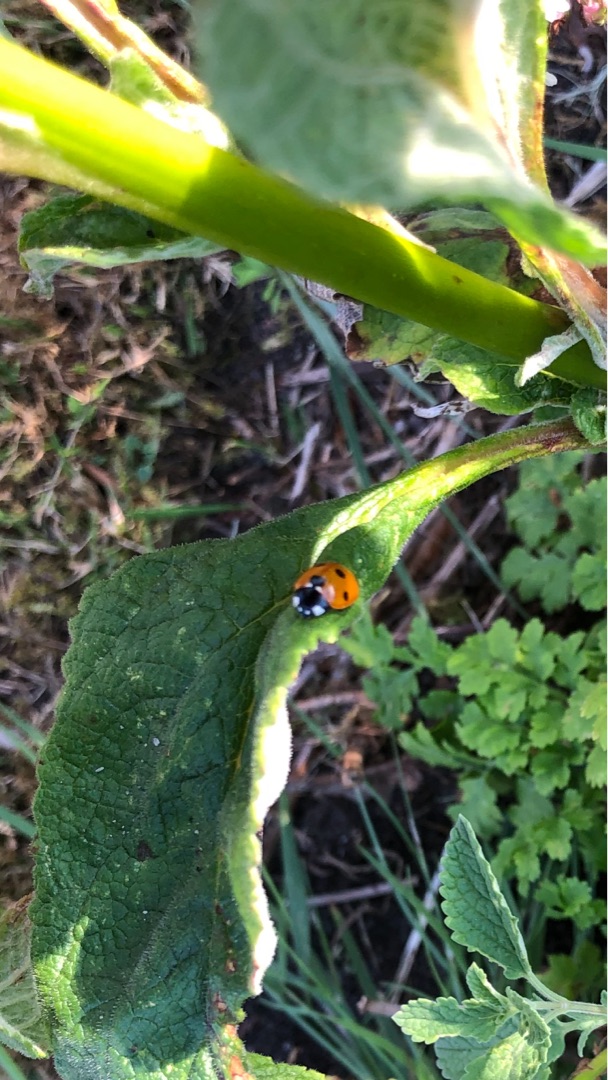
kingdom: Animalia
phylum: Arthropoda
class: Insecta
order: Coleoptera
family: Coccinellidae
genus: Coccinella
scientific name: Coccinella septempunctata
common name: Syvplettet mariehøne
